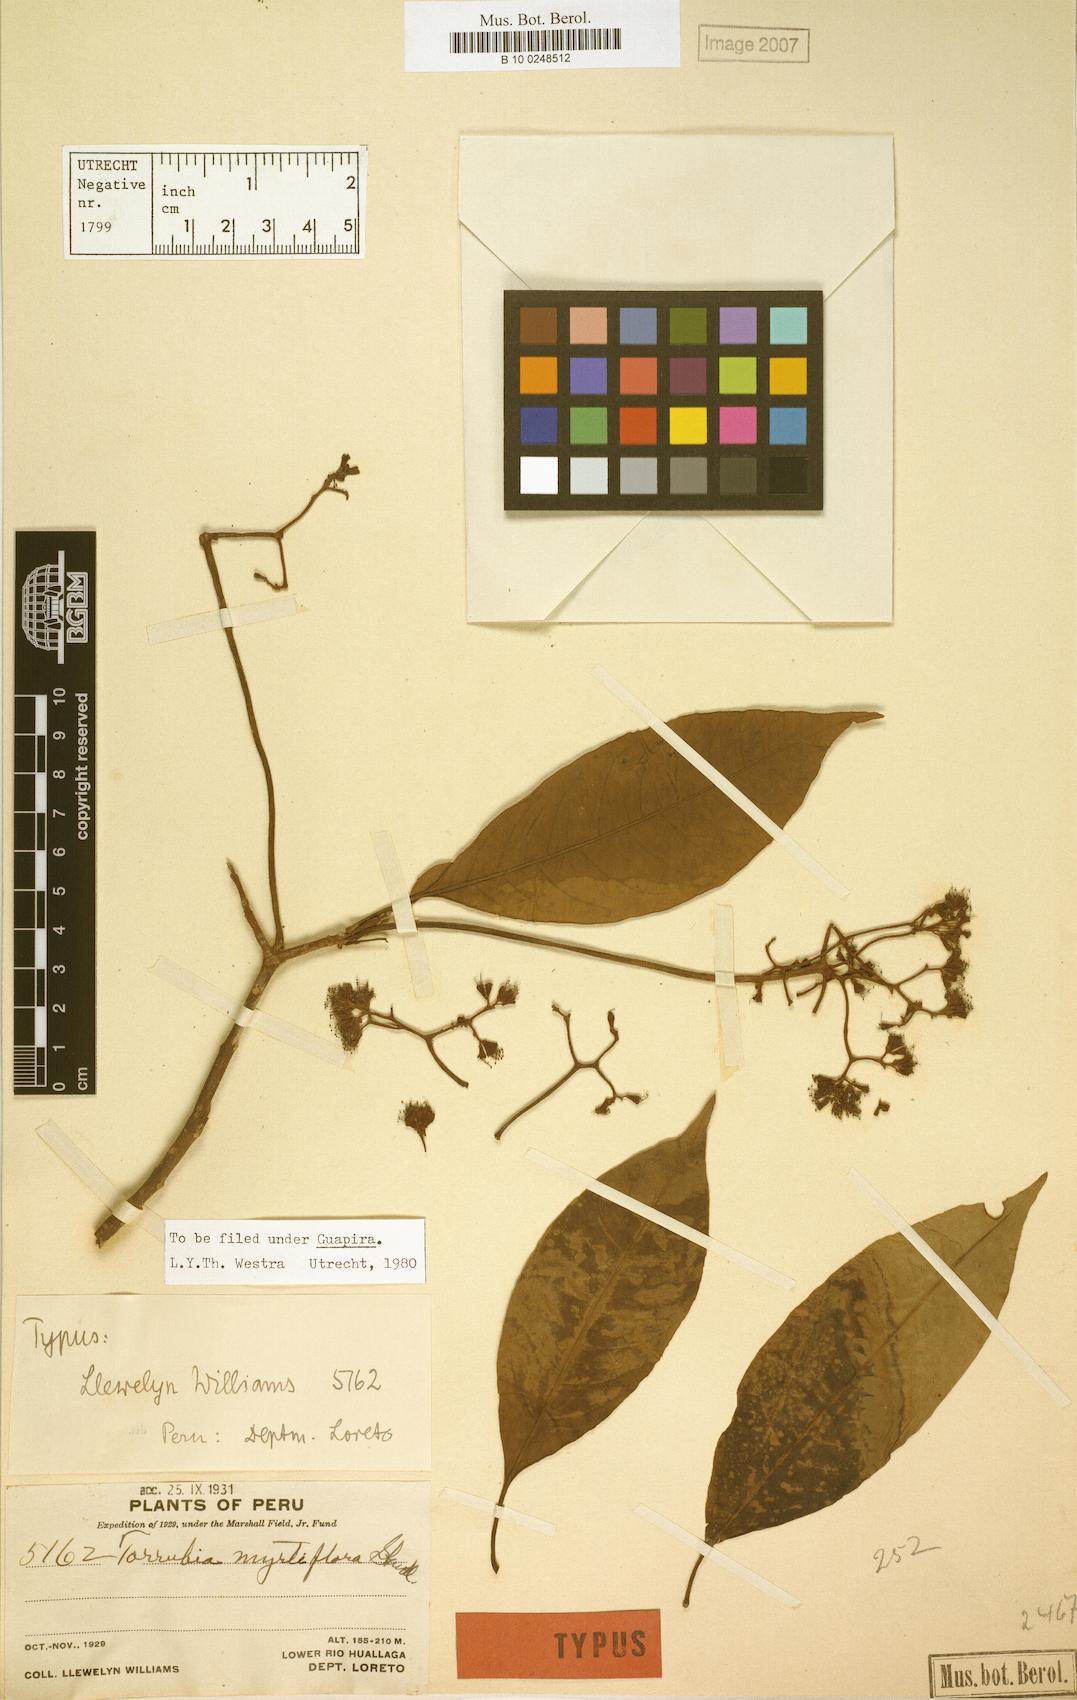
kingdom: Plantae
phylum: Tracheophyta
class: Magnoliopsida
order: Caryophyllales
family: Nyctaginaceae
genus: Guapira
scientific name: Guapira myrtiflora
